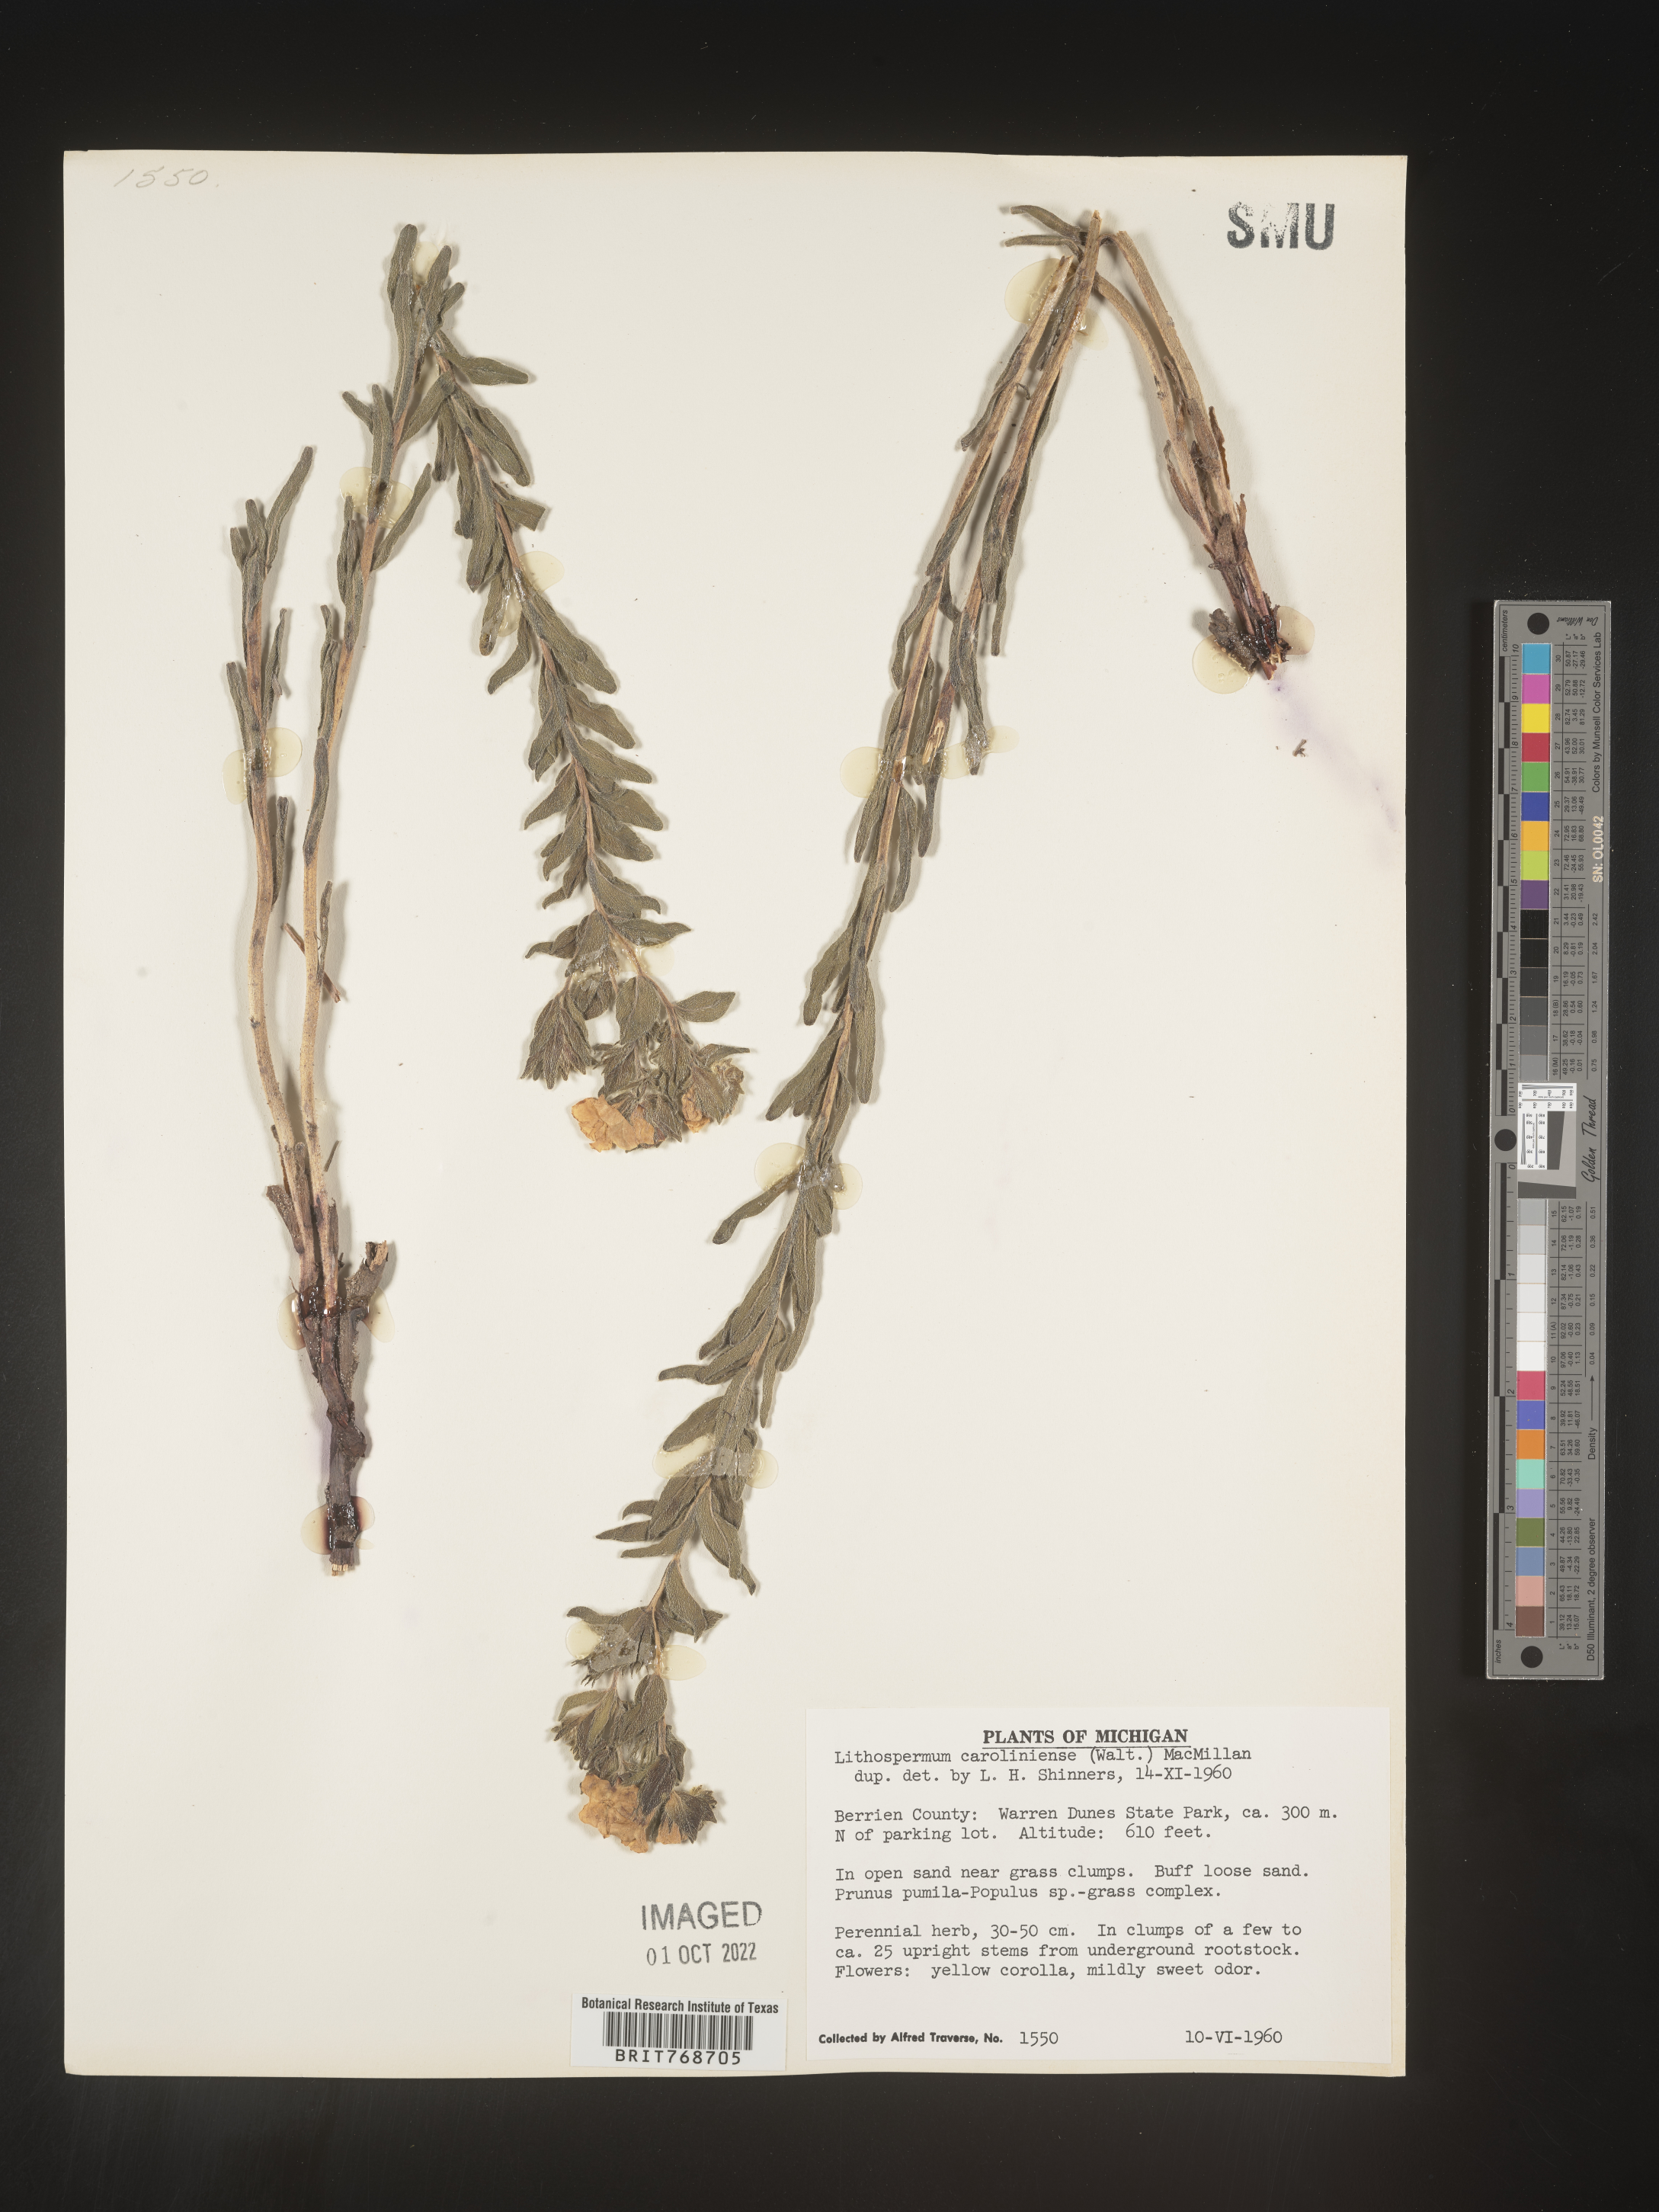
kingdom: Plantae
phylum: Tracheophyta
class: Magnoliopsida
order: Boraginales
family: Boraginaceae
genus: Lithospermum
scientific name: Lithospermum caroliniense
